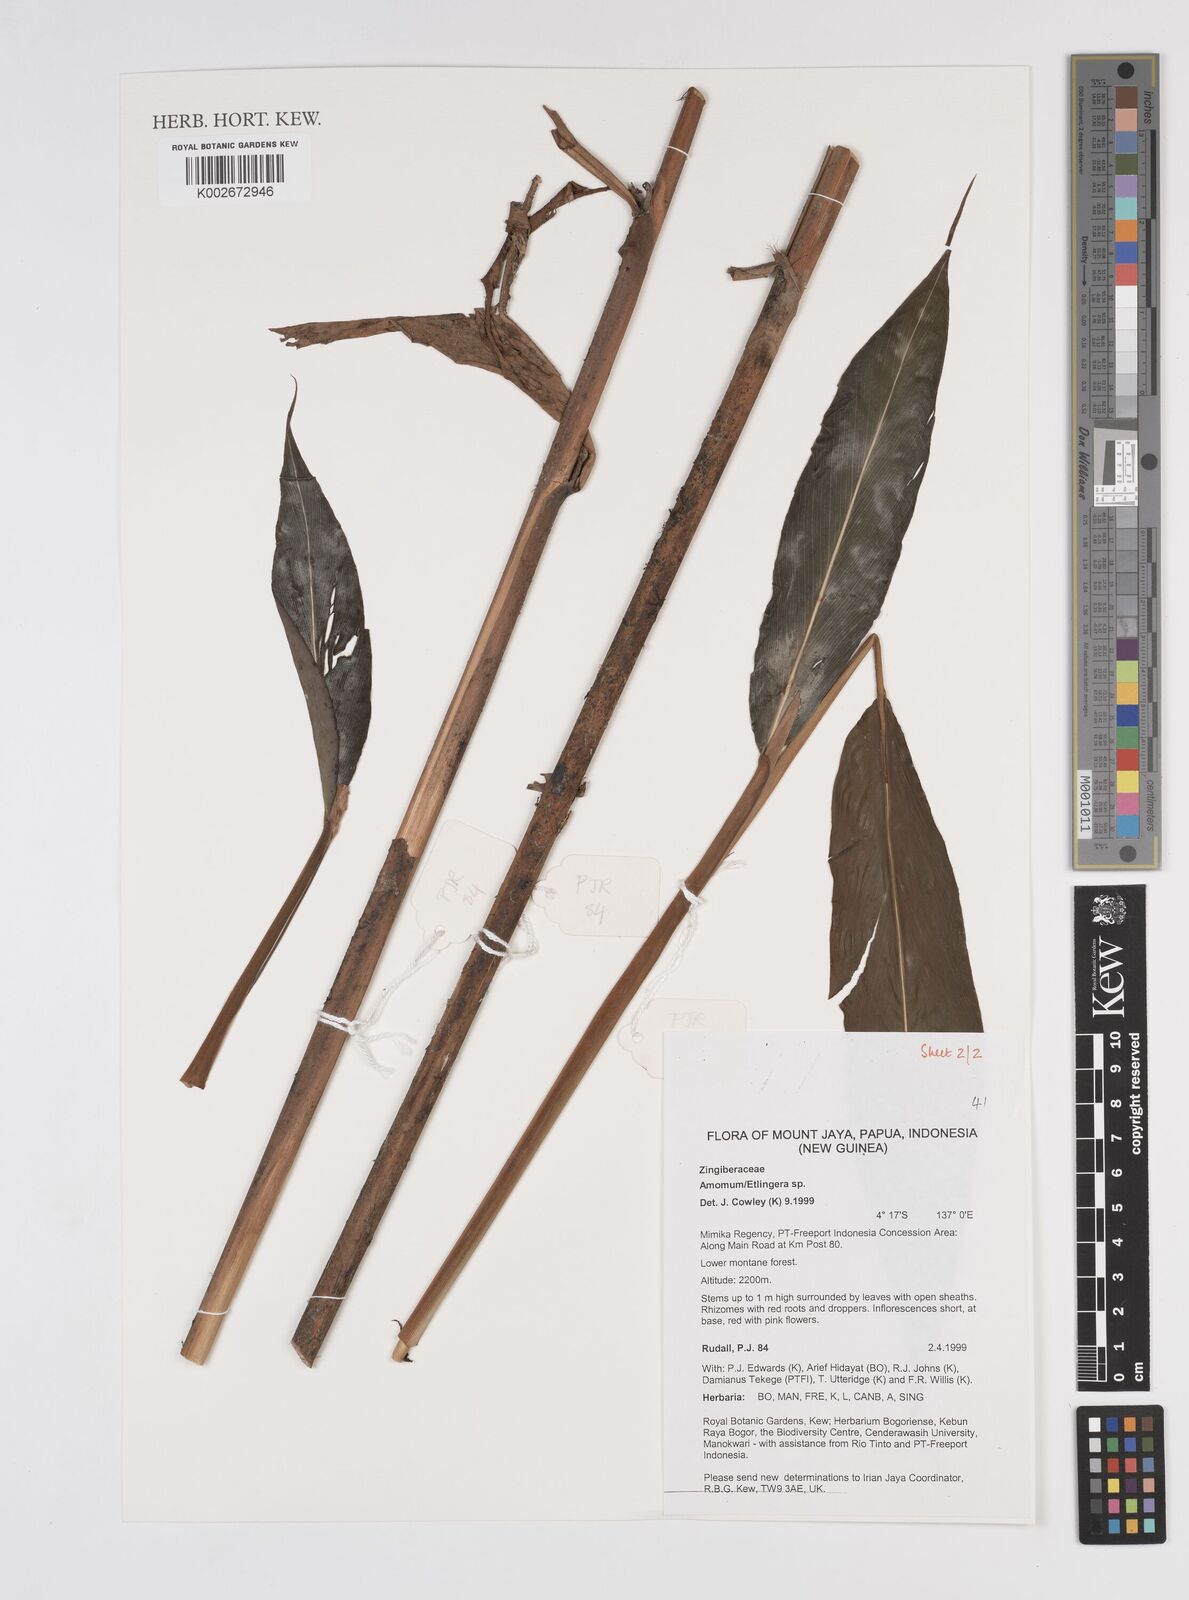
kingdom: Plantae
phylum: Tracheophyta
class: Liliopsida
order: Zingiberales
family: Zingiberaceae
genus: Etlingera
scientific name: Etlingera
